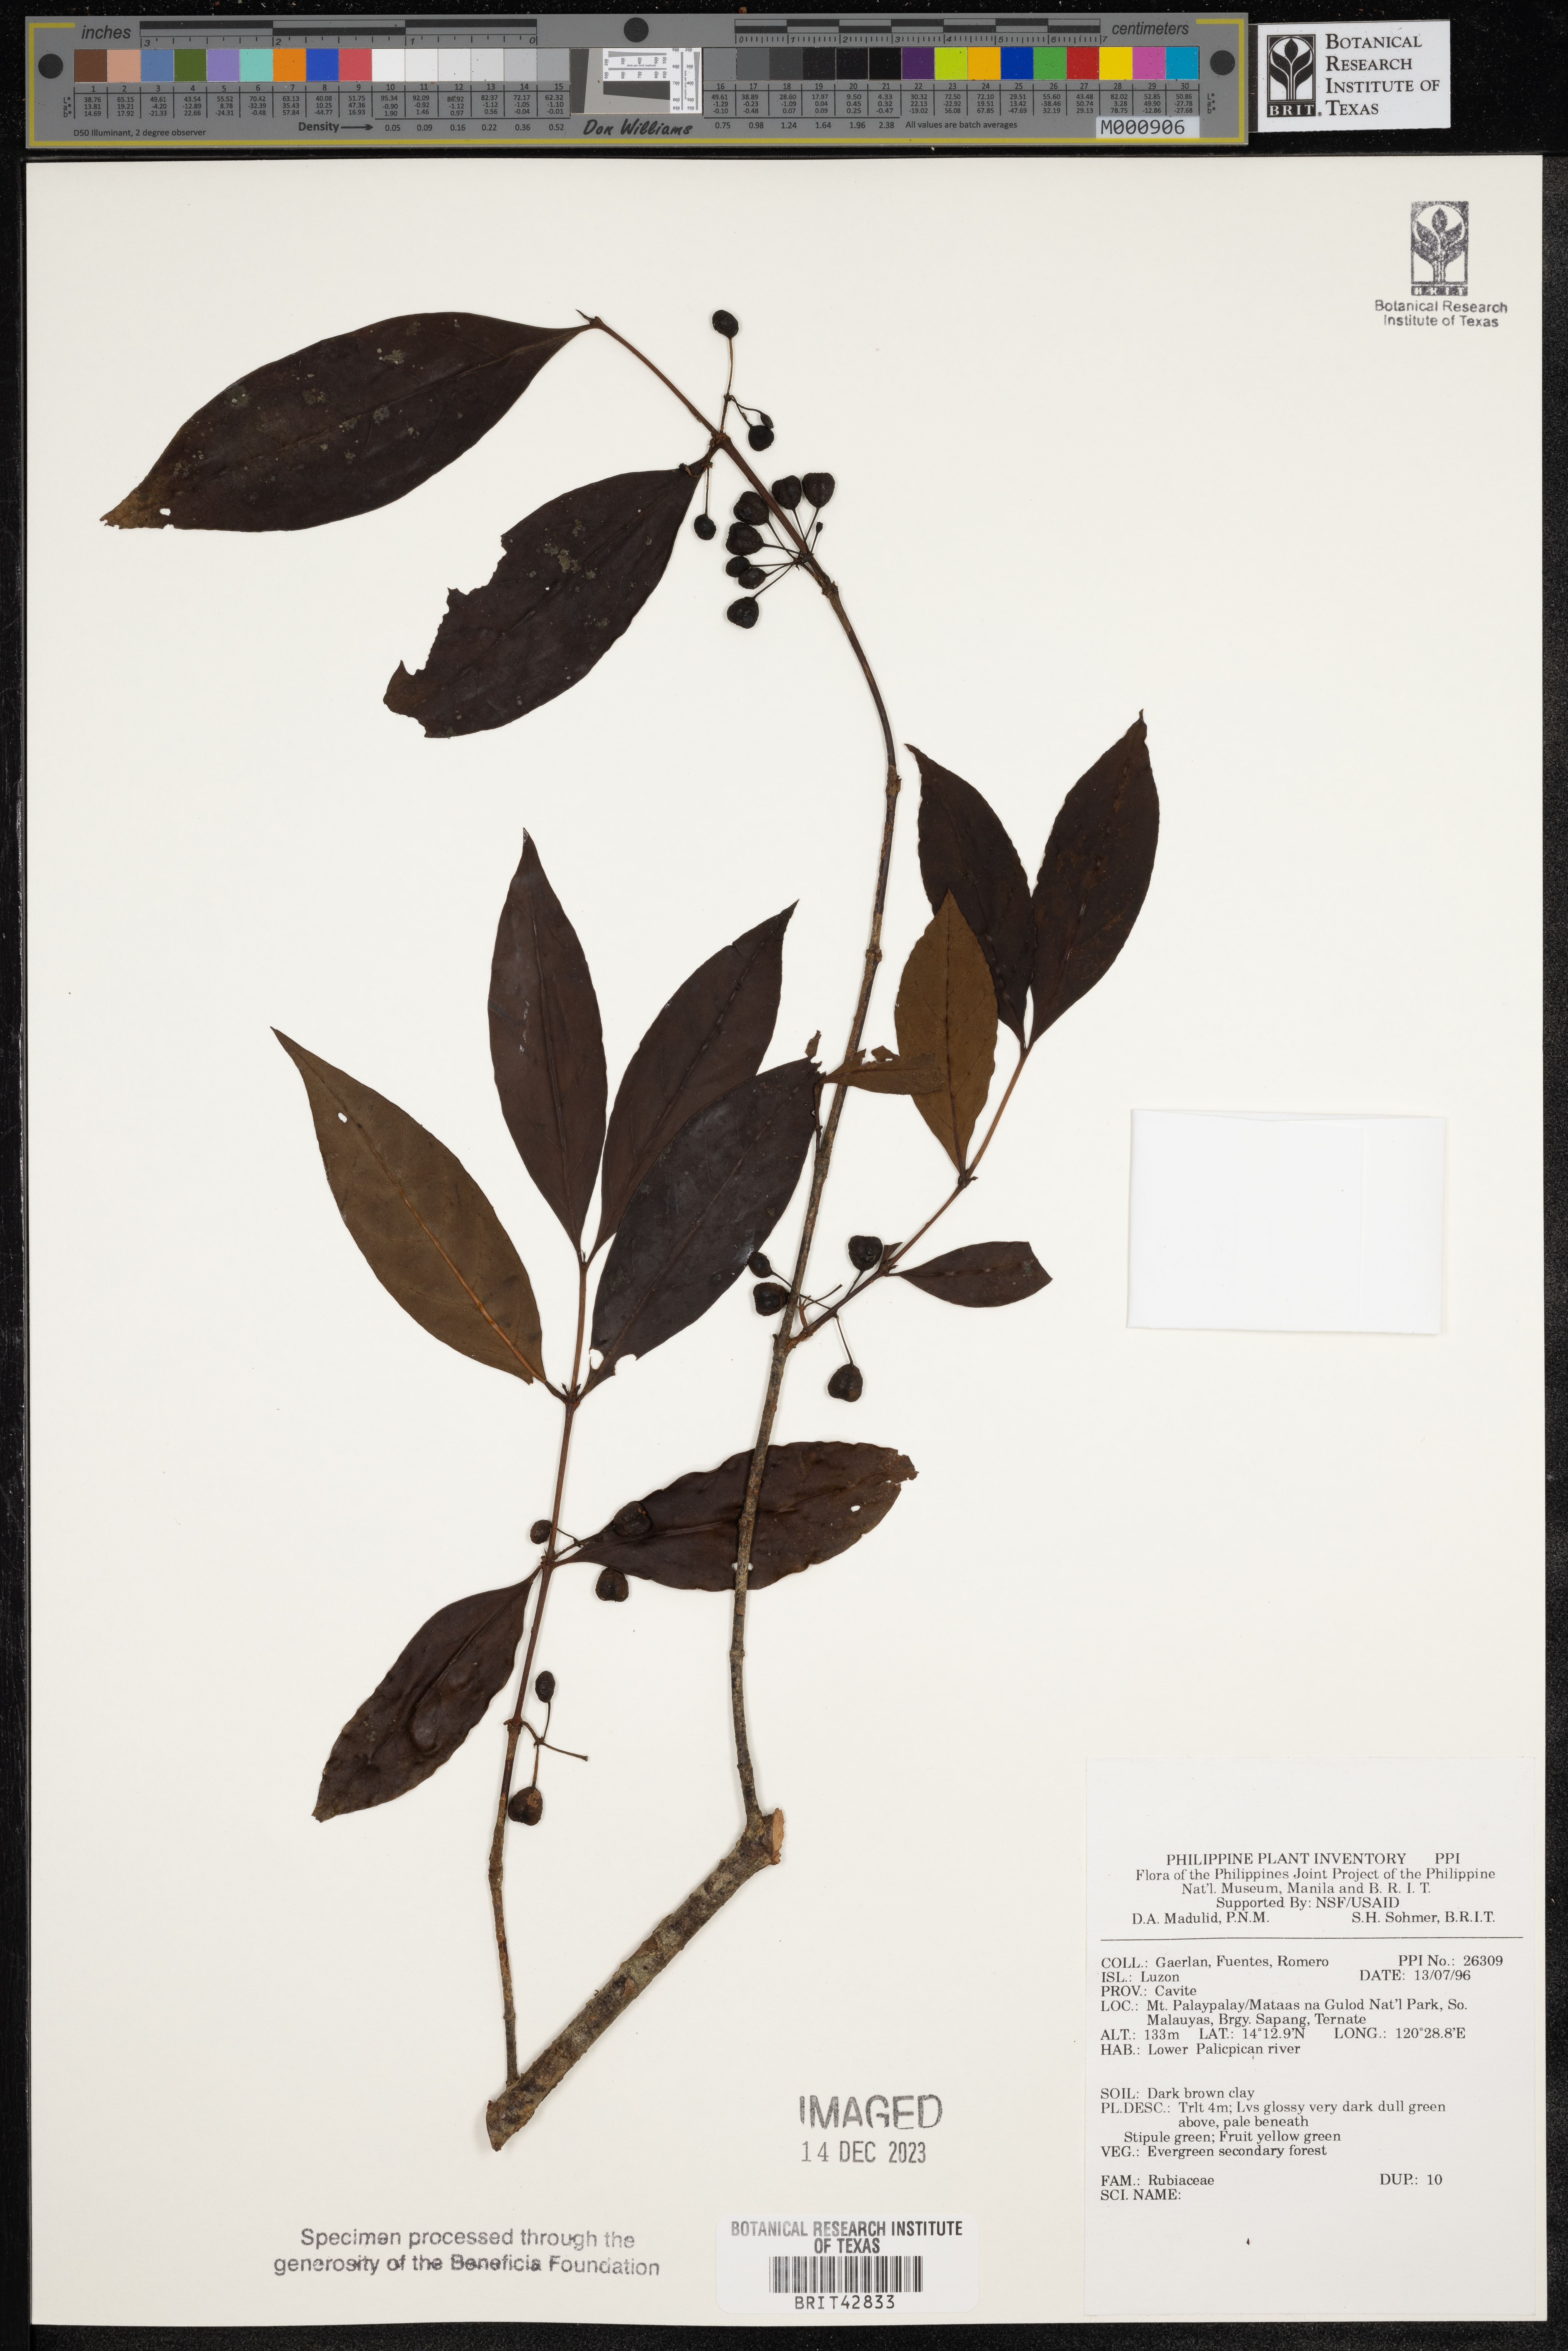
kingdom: Plantae
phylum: Tracheophyta
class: Magnoliopsida
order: Gentianales
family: Rubiaceae
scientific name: Rubiaceae
